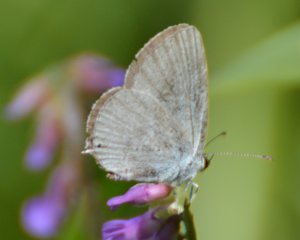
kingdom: Animalia
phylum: Arthropoda
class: Insecta
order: Lepidoptera
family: Lycaenidae
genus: Elkalyce
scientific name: Elkalyce amyntula
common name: Western Tailed-Blue
